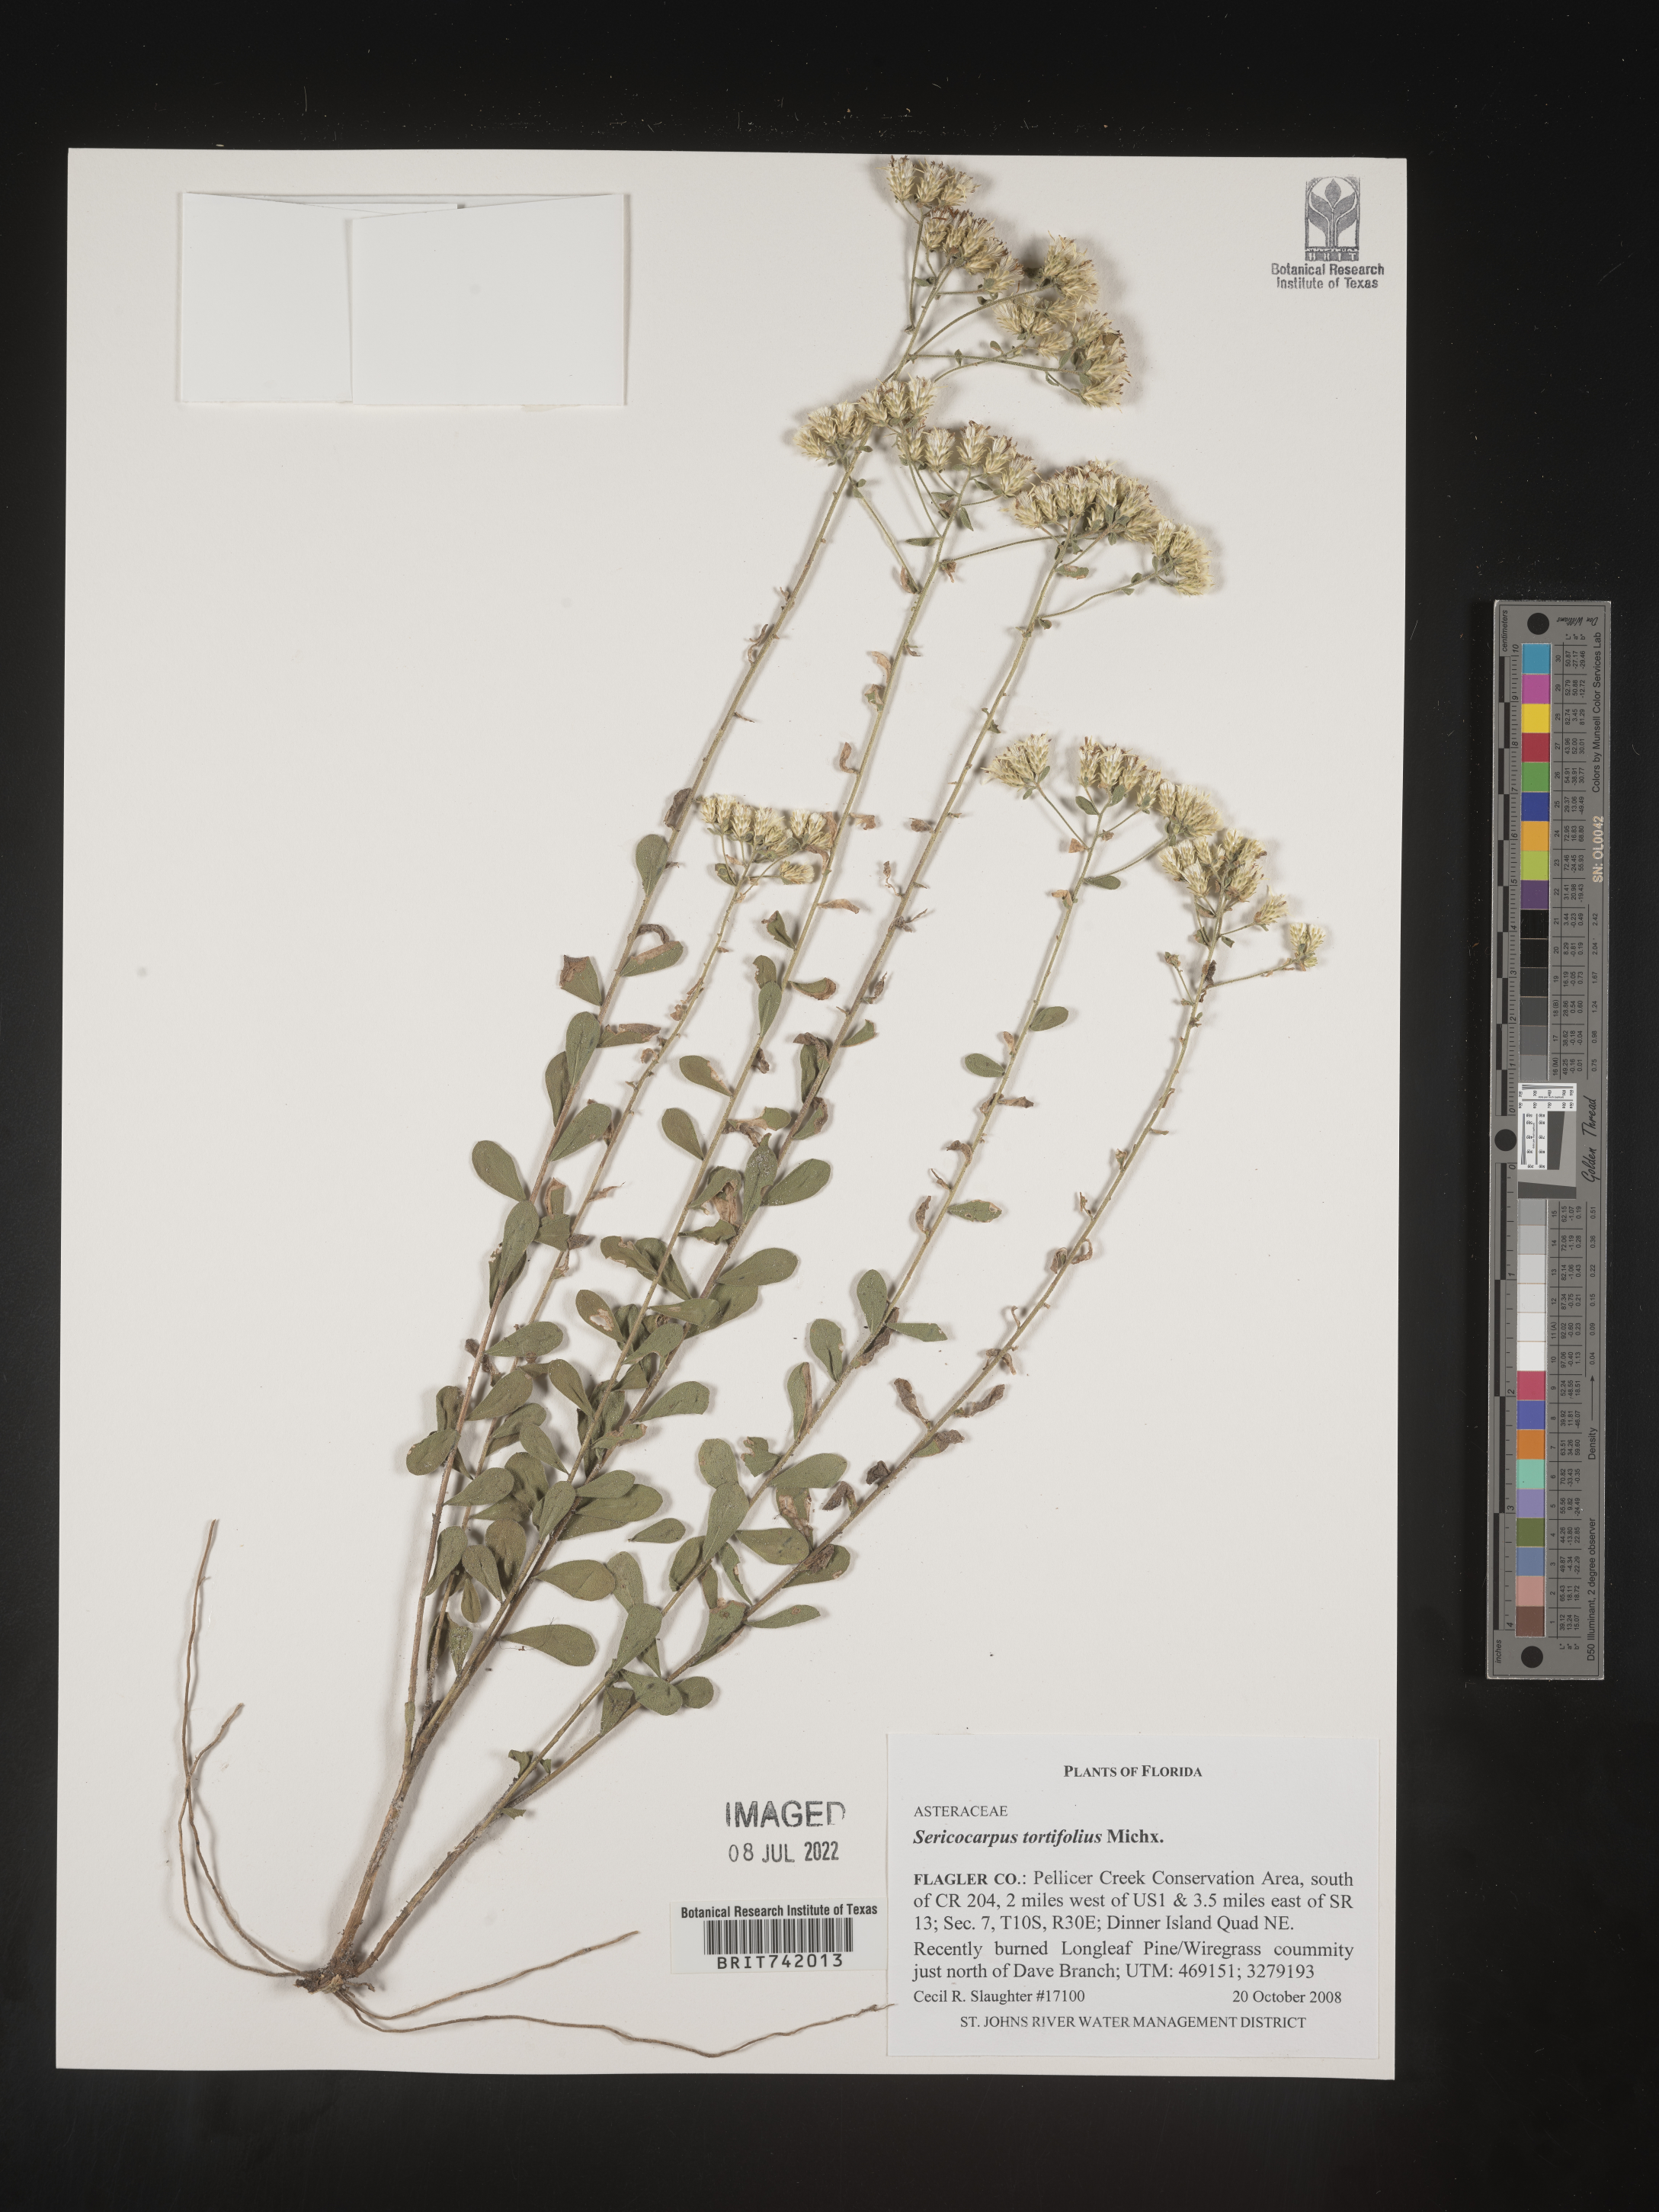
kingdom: Plantae
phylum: Tracheophyta
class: Magnoliopsida
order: Asterales
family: Asteraceae
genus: Sericocarpus
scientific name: Sericocarpus tortifolius
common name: Dixie aster
